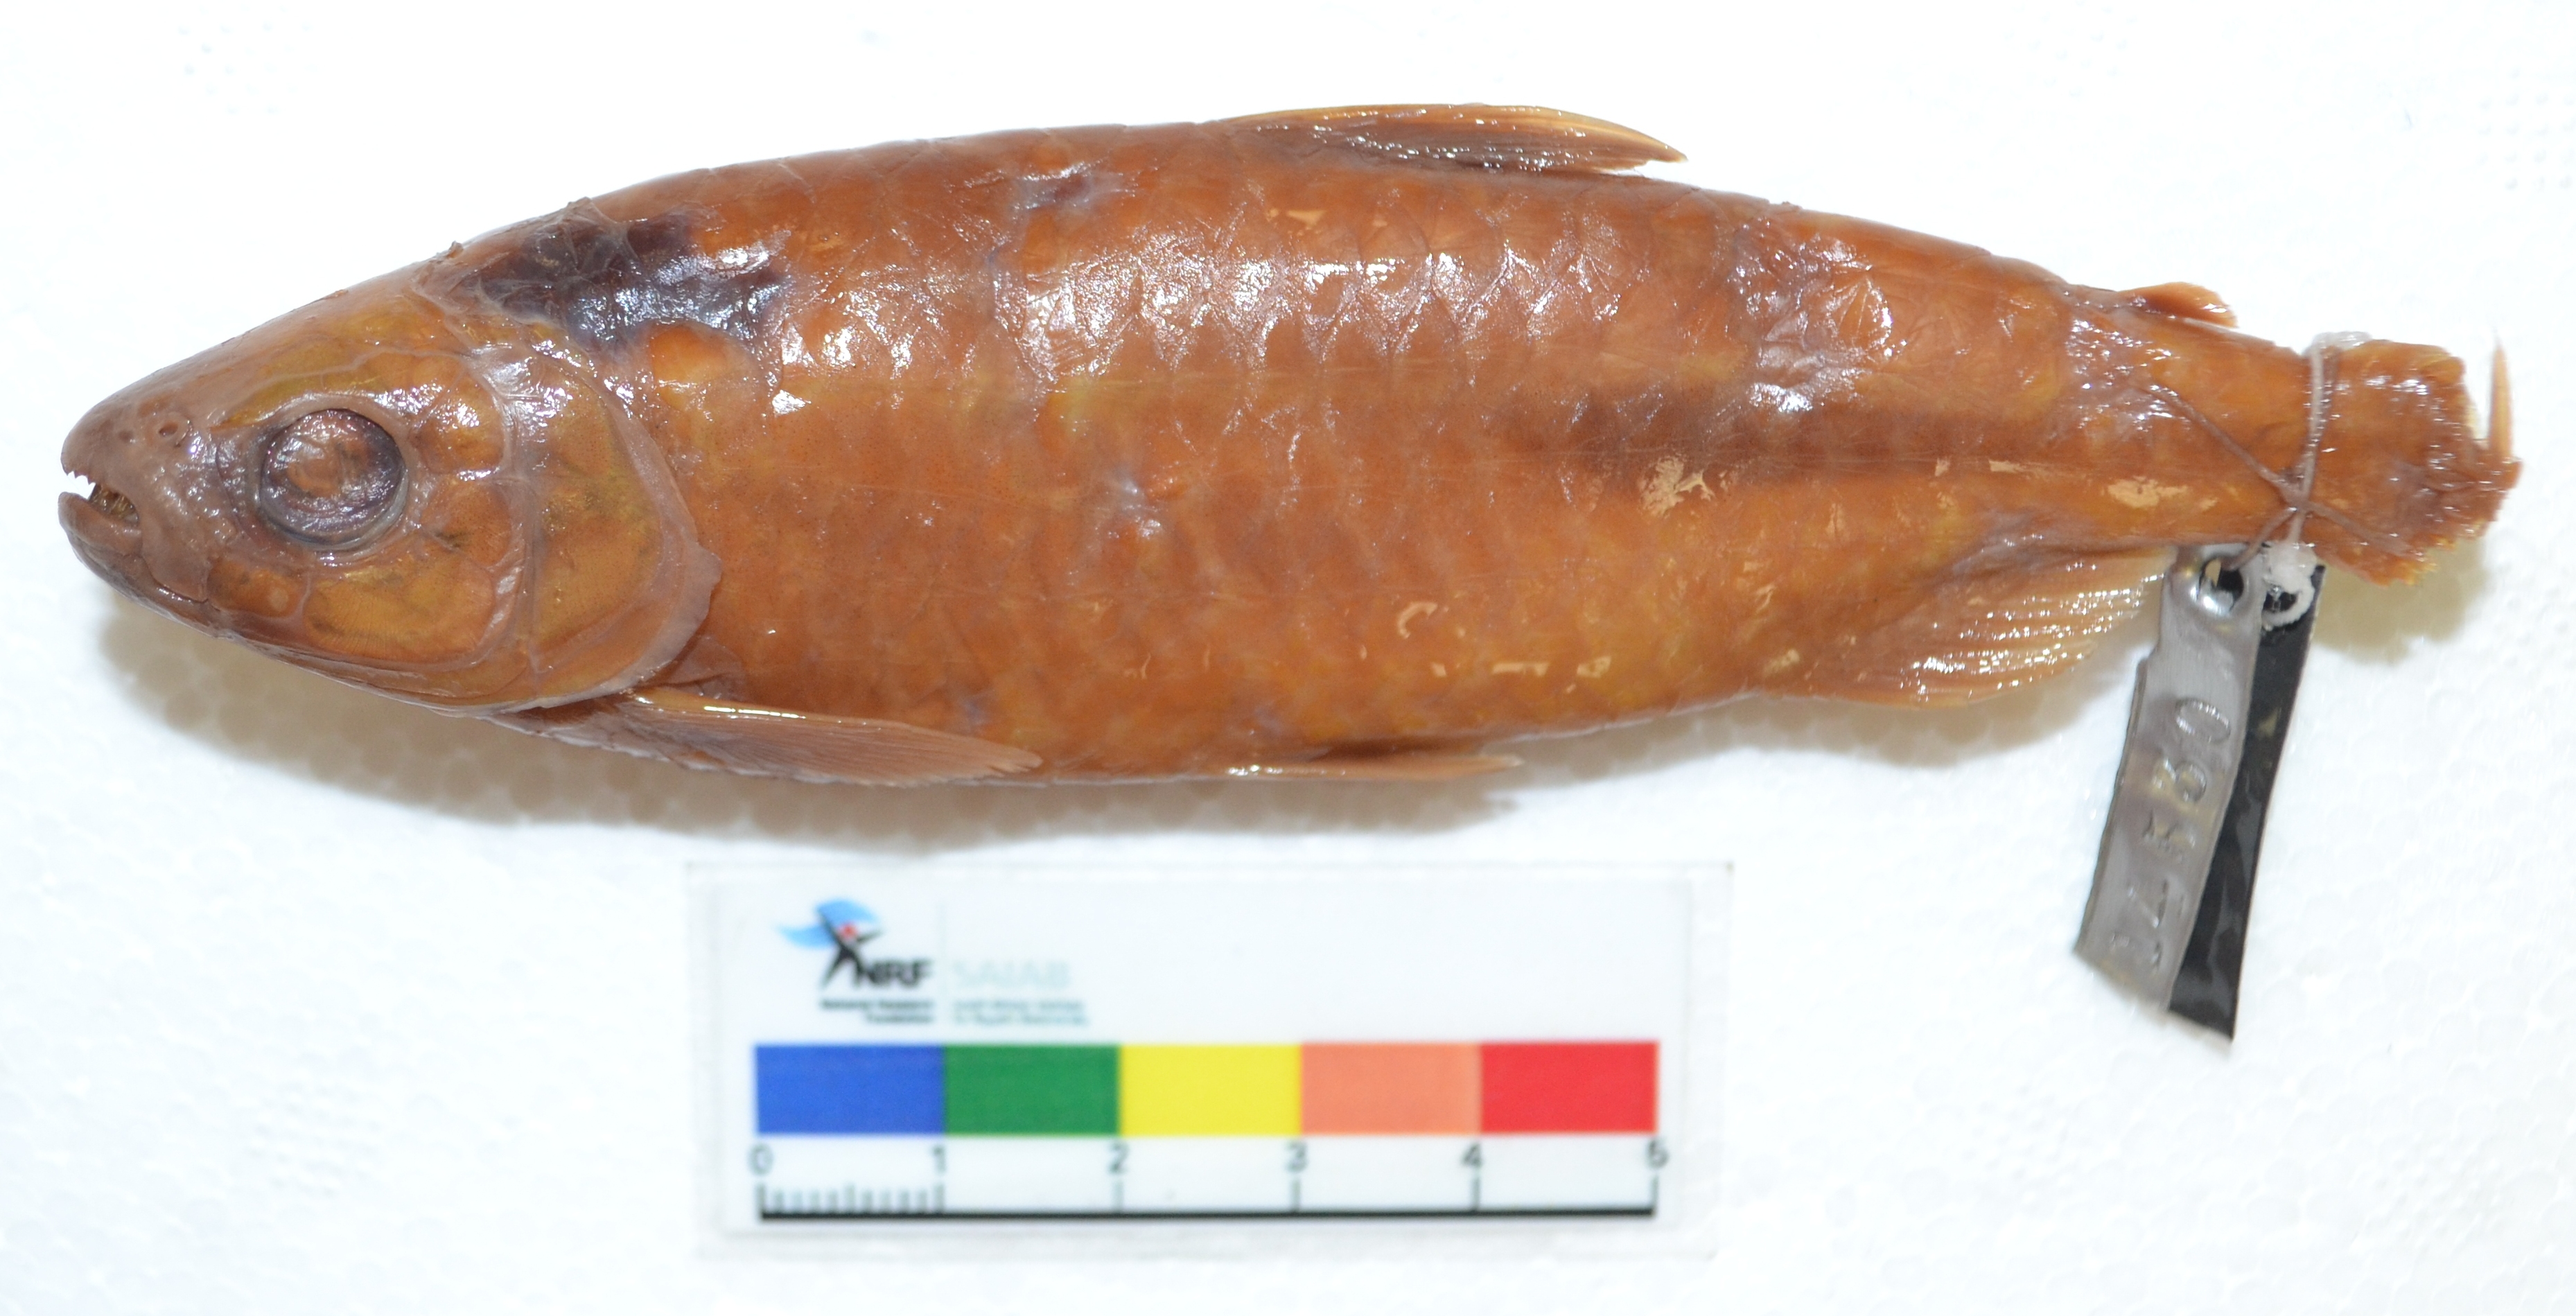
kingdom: Animalia
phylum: Chordata
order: Characiformes
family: Alestidae
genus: Brycinus
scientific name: Brycinus peringueyi
